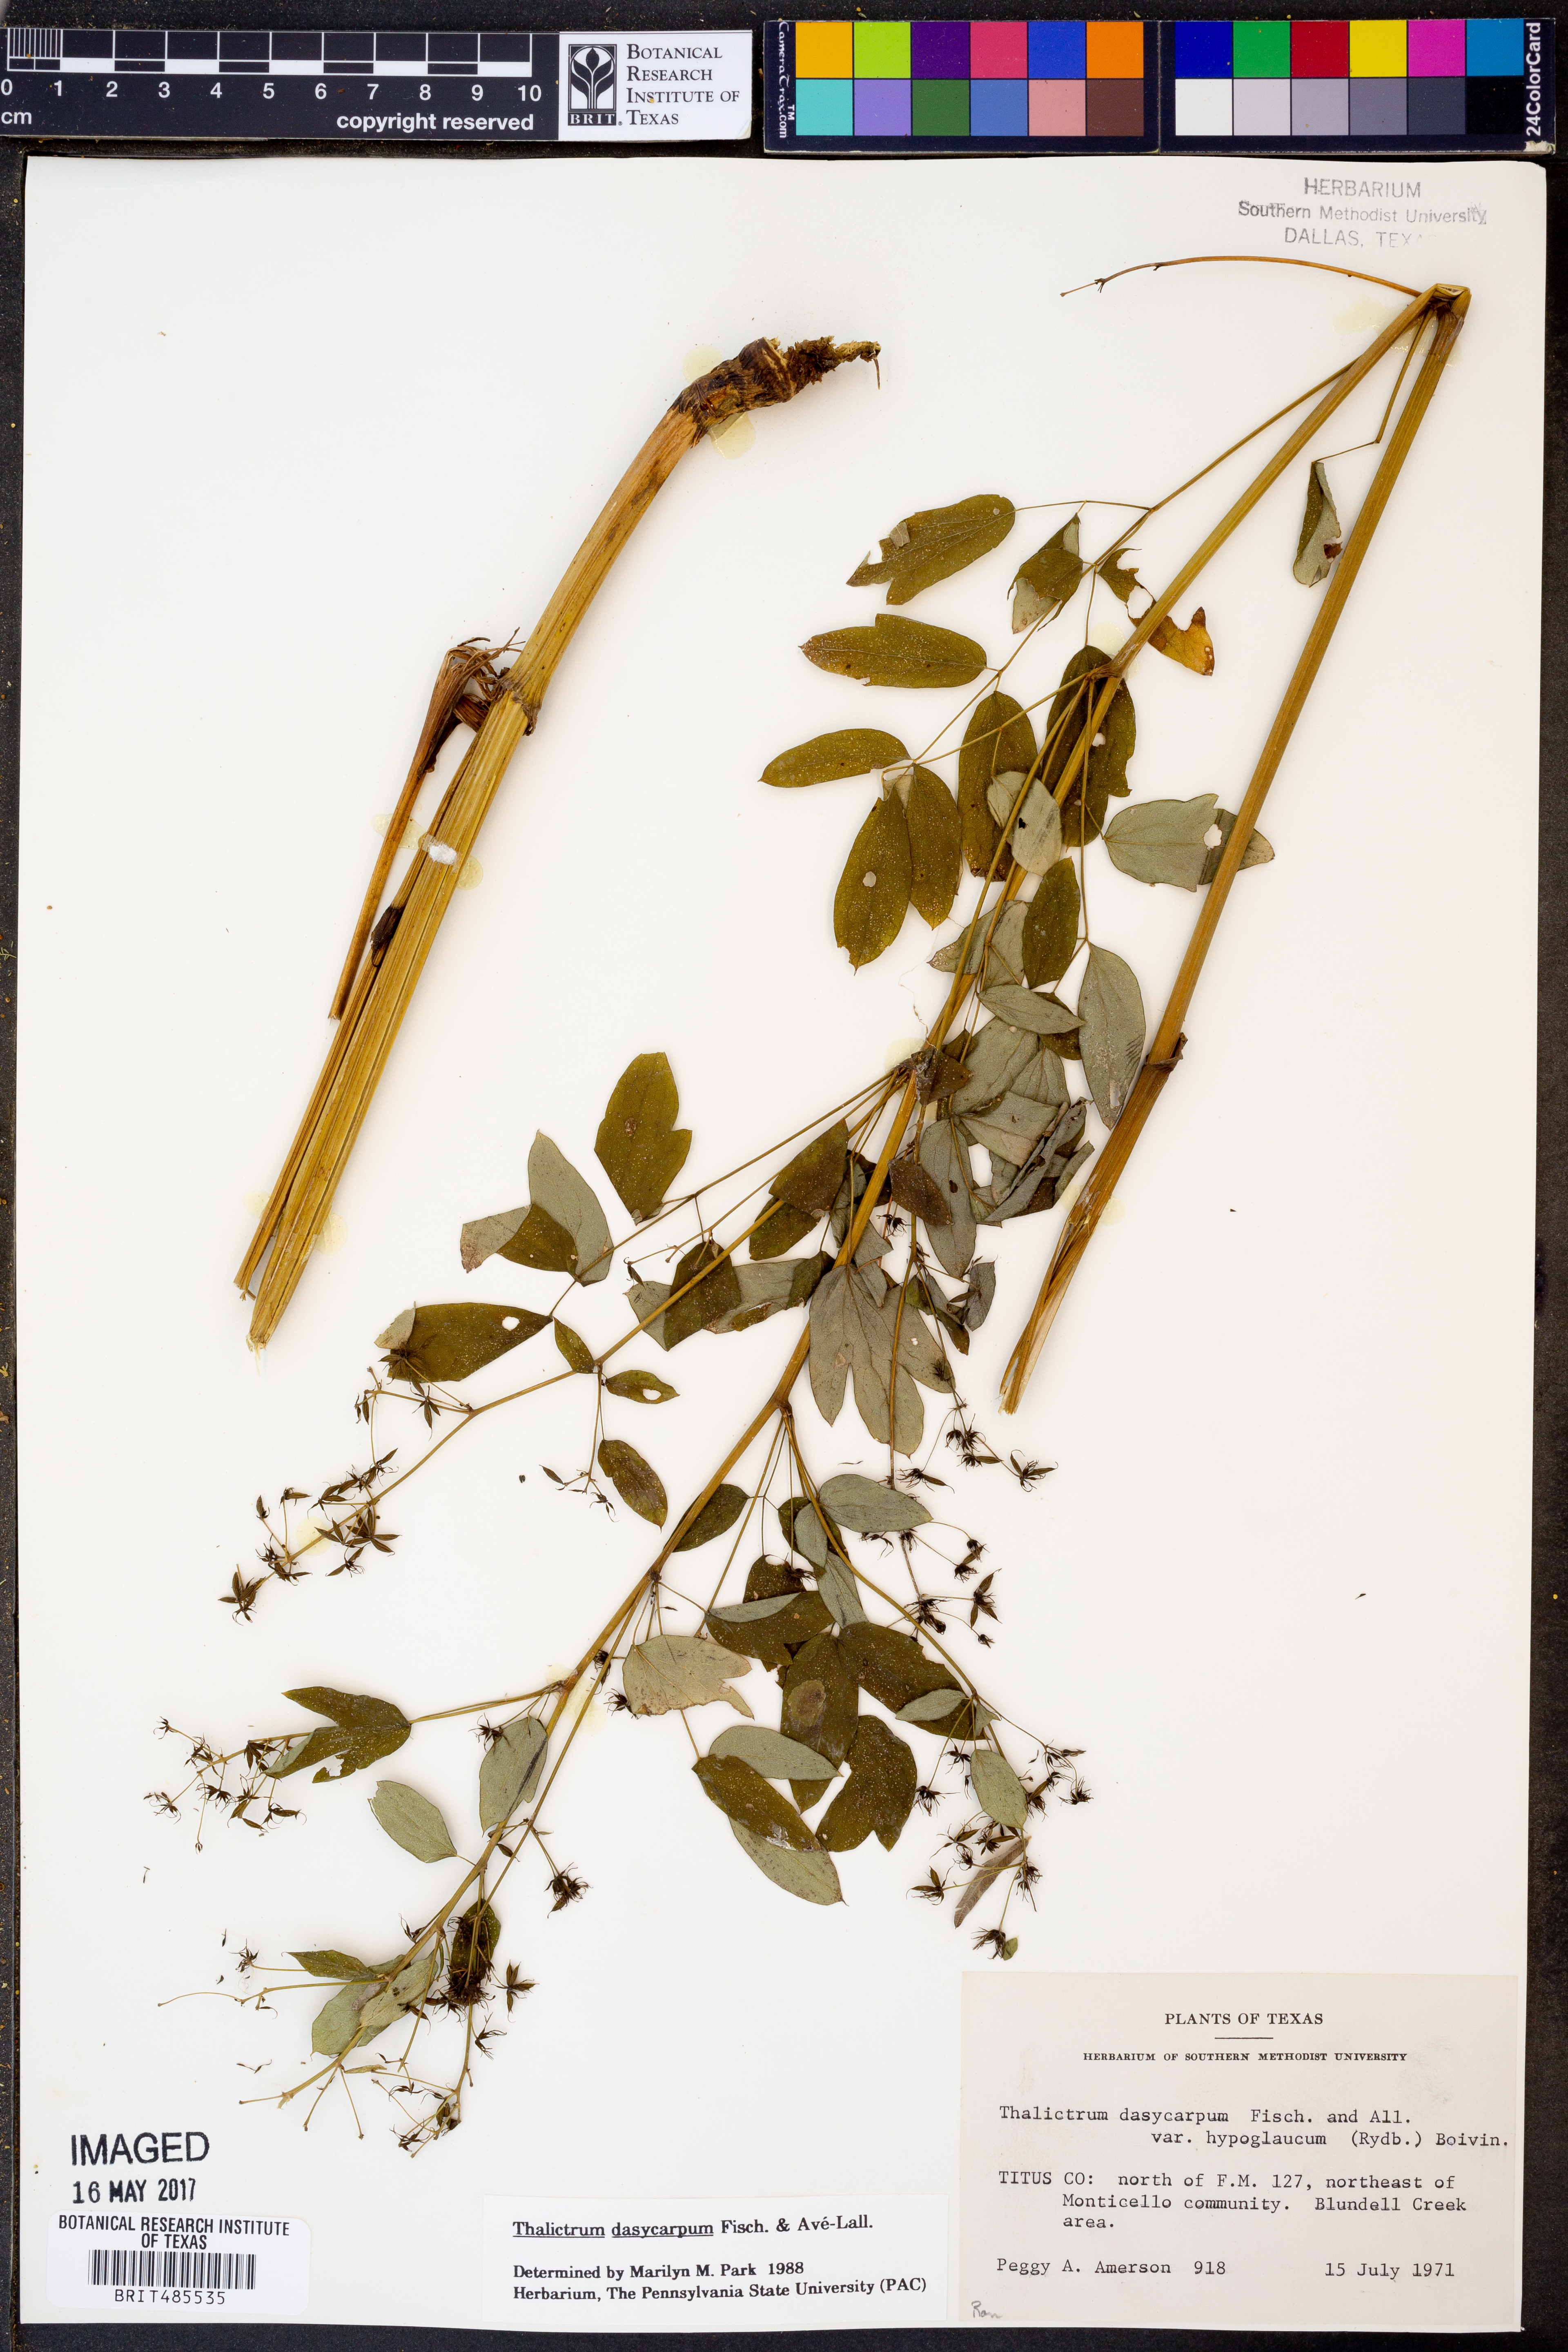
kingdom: Plantae
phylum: Tracheophyta
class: Magnoliopsida
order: Ranunculales
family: Ranunculaceae
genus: Thalictrum
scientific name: Thalictrum dasycarpum
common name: Purple meadow-rue
